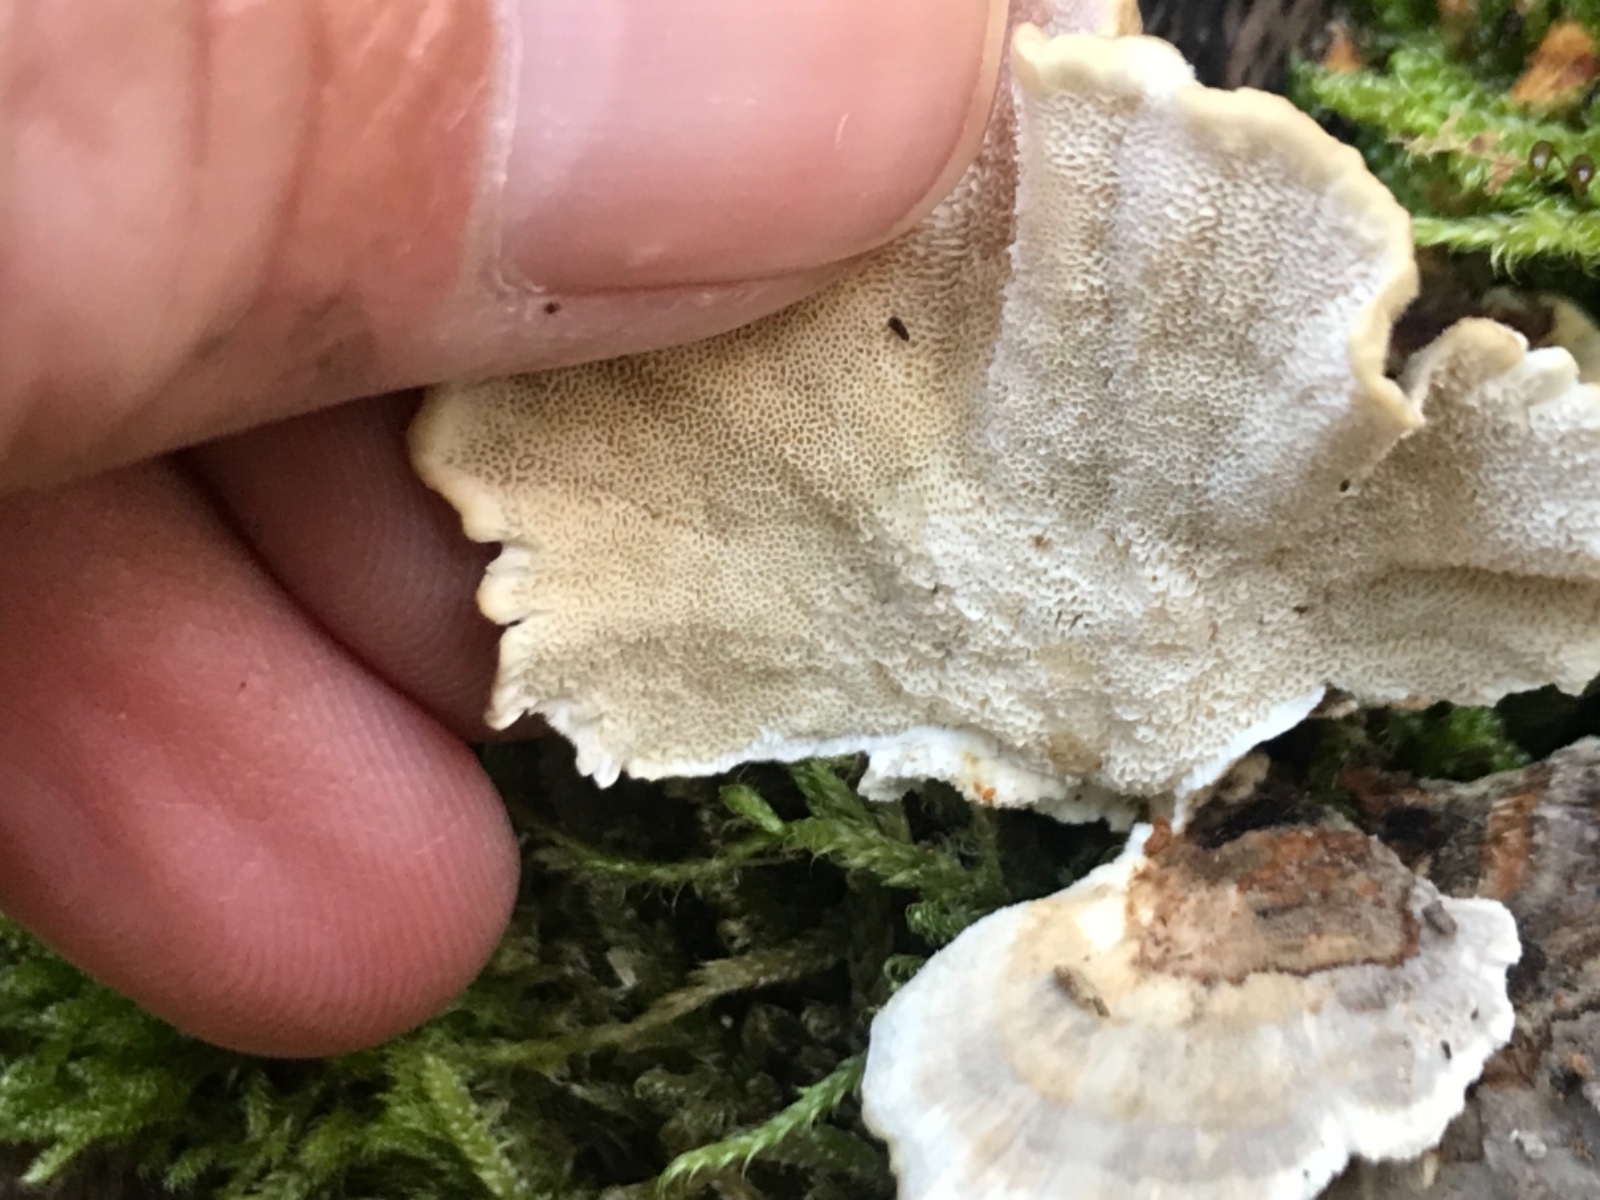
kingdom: Fungi
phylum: Basidiomycota
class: Agaricomycetes
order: Polyporales
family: Polyporaceae
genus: Trametes
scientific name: Trametes versicolor
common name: broget læderporesvamp
